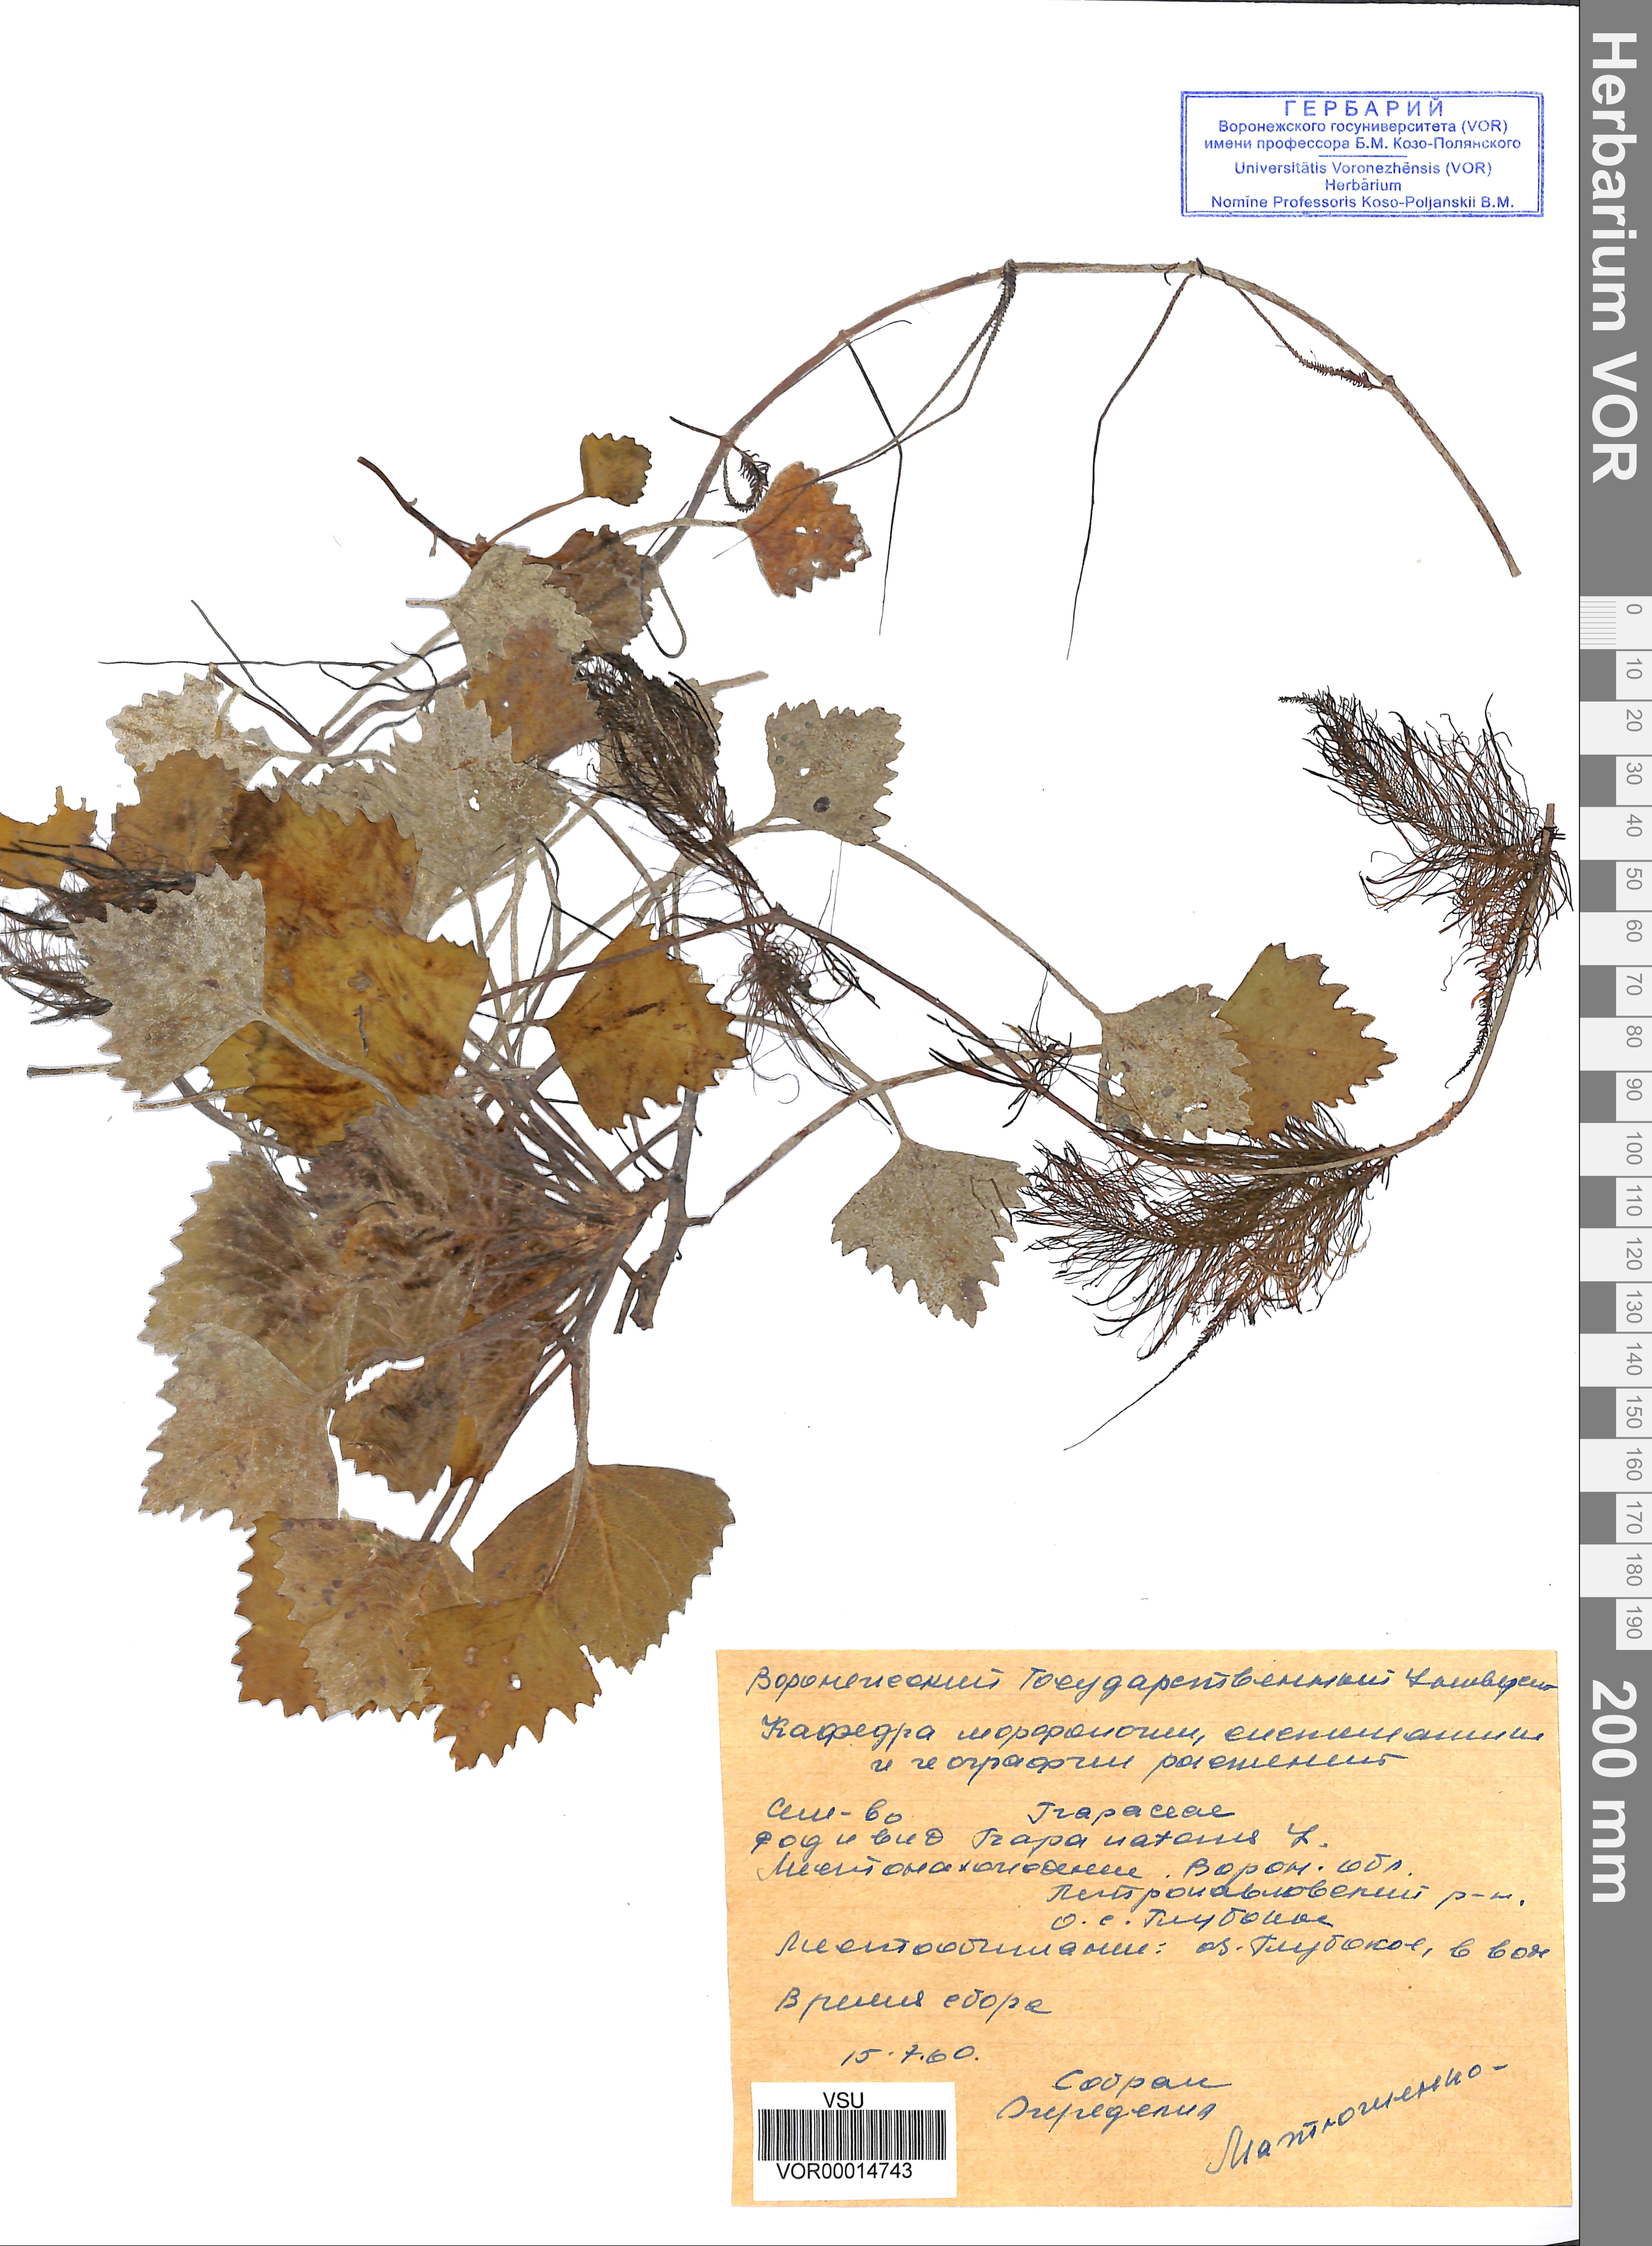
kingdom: Plantae
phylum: Tracheophyta
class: Magnoliopsida
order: Myrtales
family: Lythraceae
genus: Trapa
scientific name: Trapa natans
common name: Water chestnut
